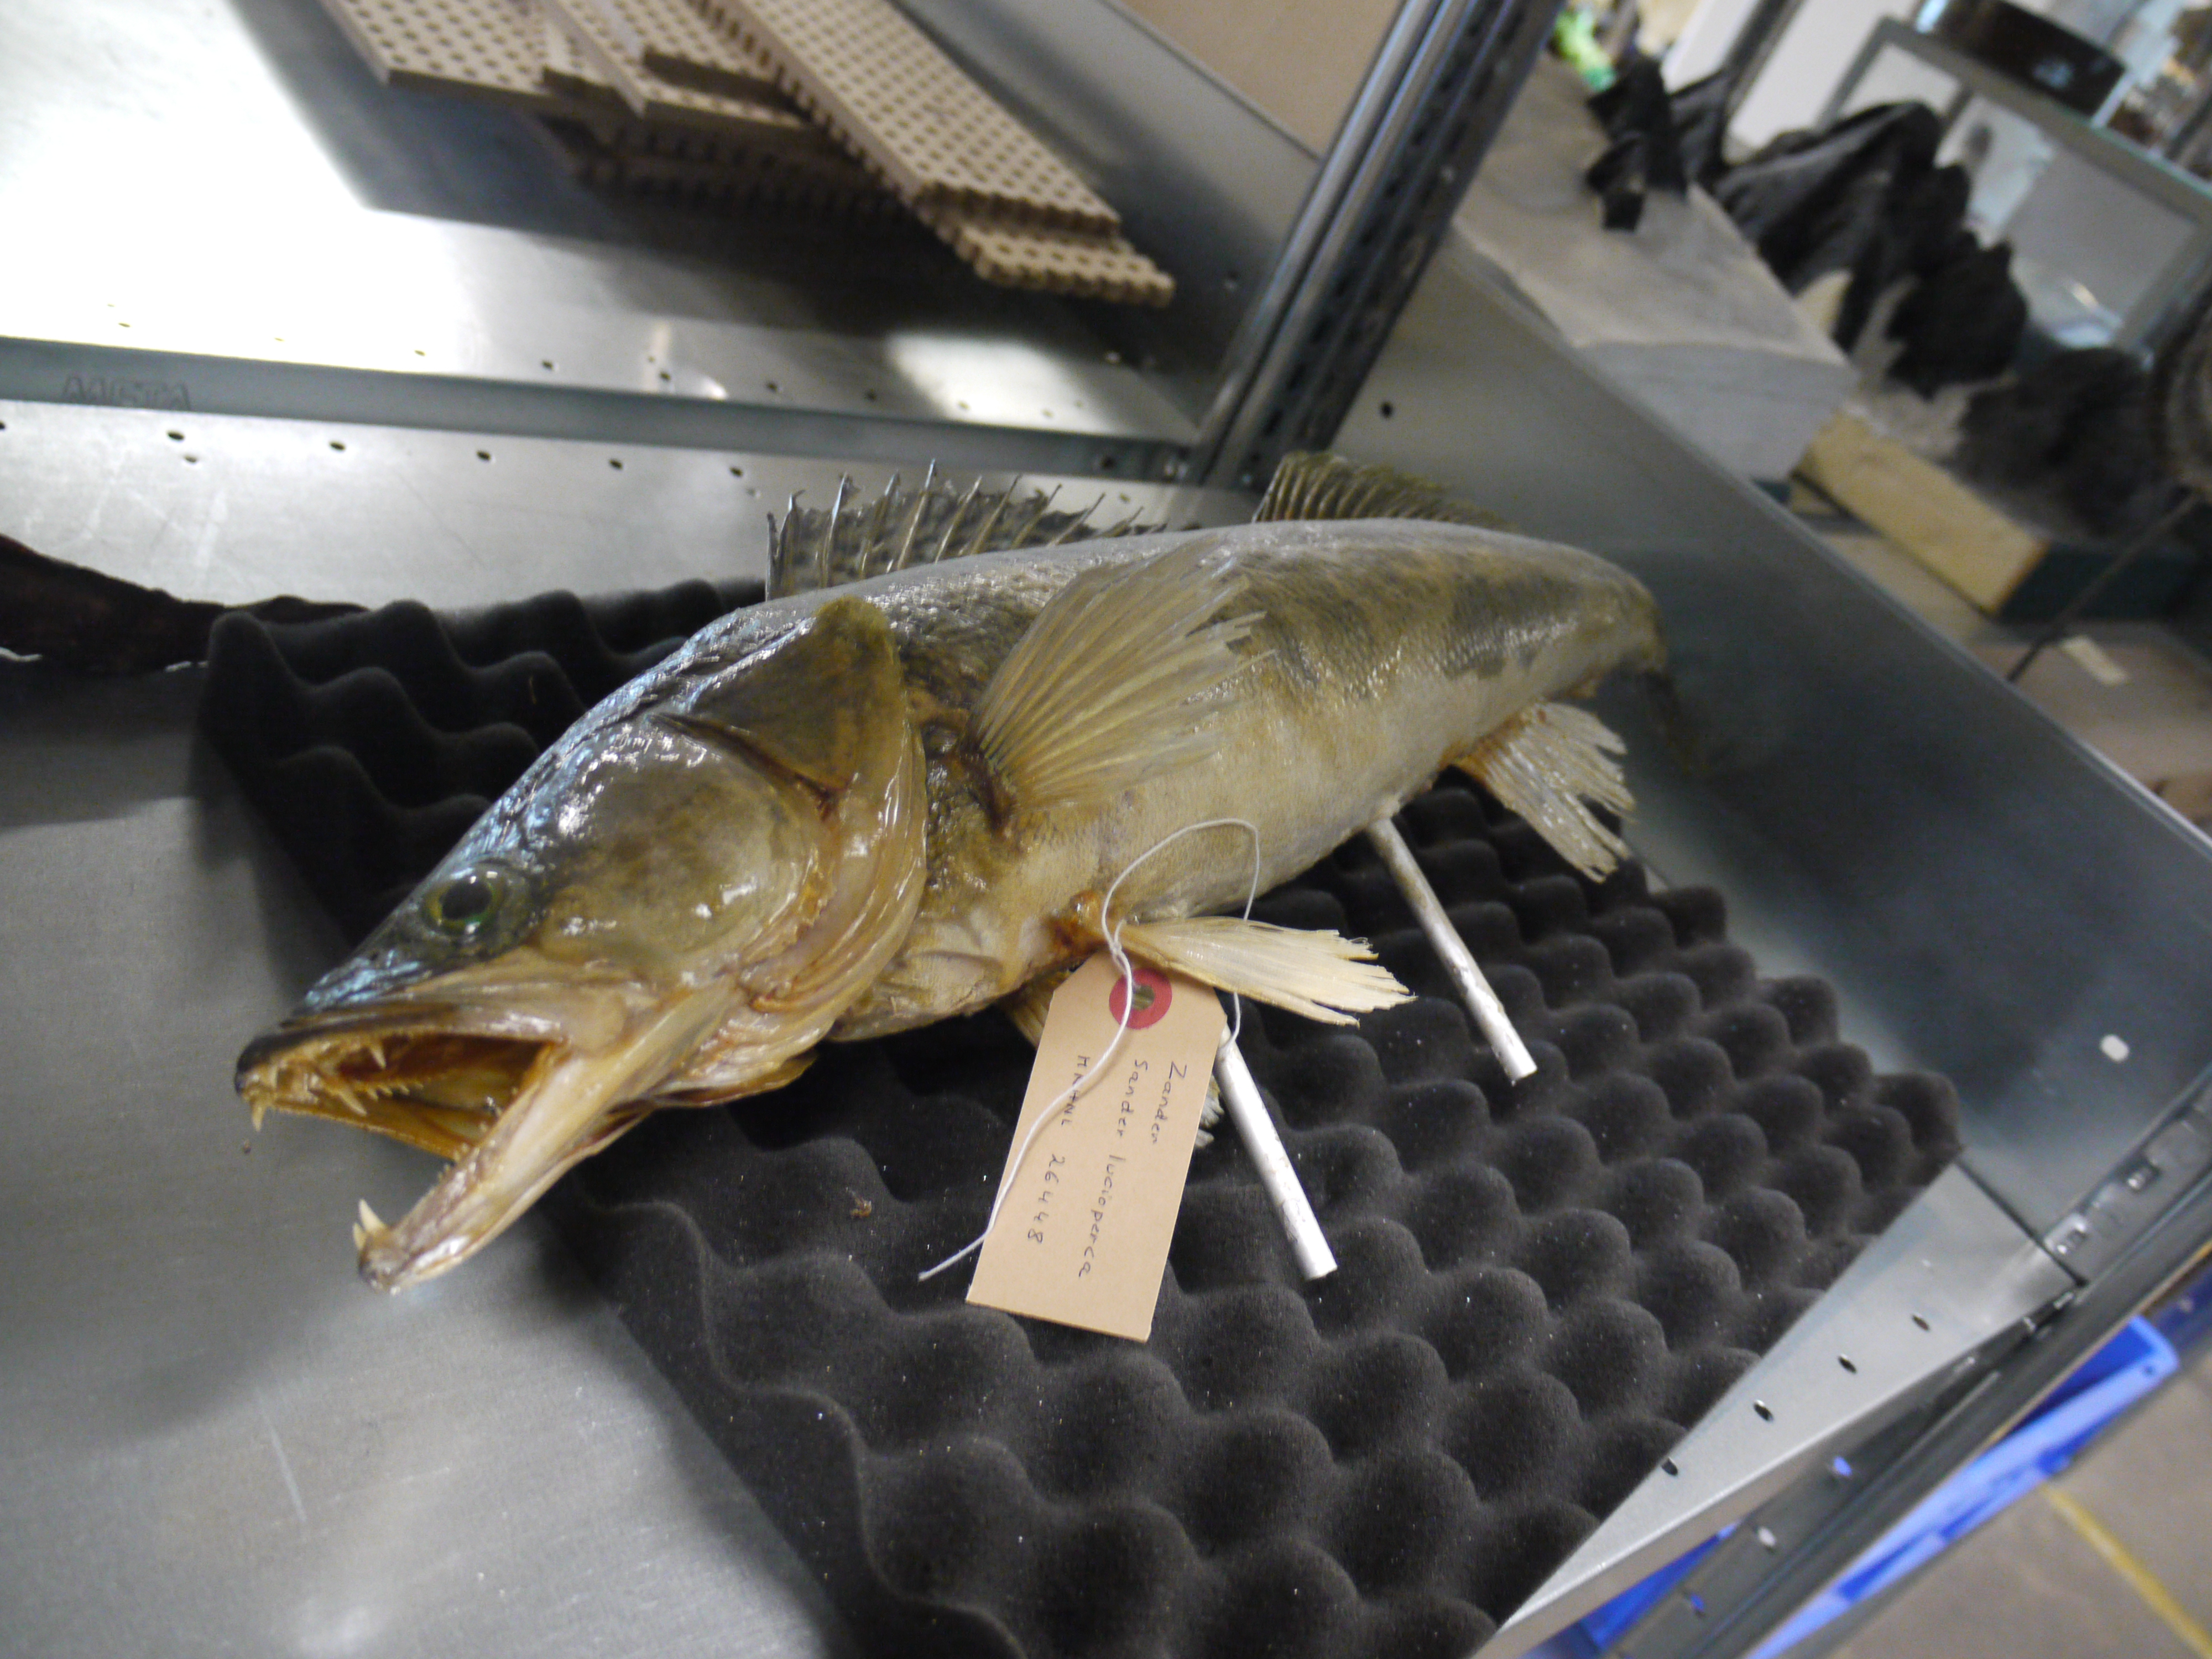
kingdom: Animalia
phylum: Chordata
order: Perciformes
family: Percidae
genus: Sander
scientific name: Sander lucioperca
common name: Pikeperch
